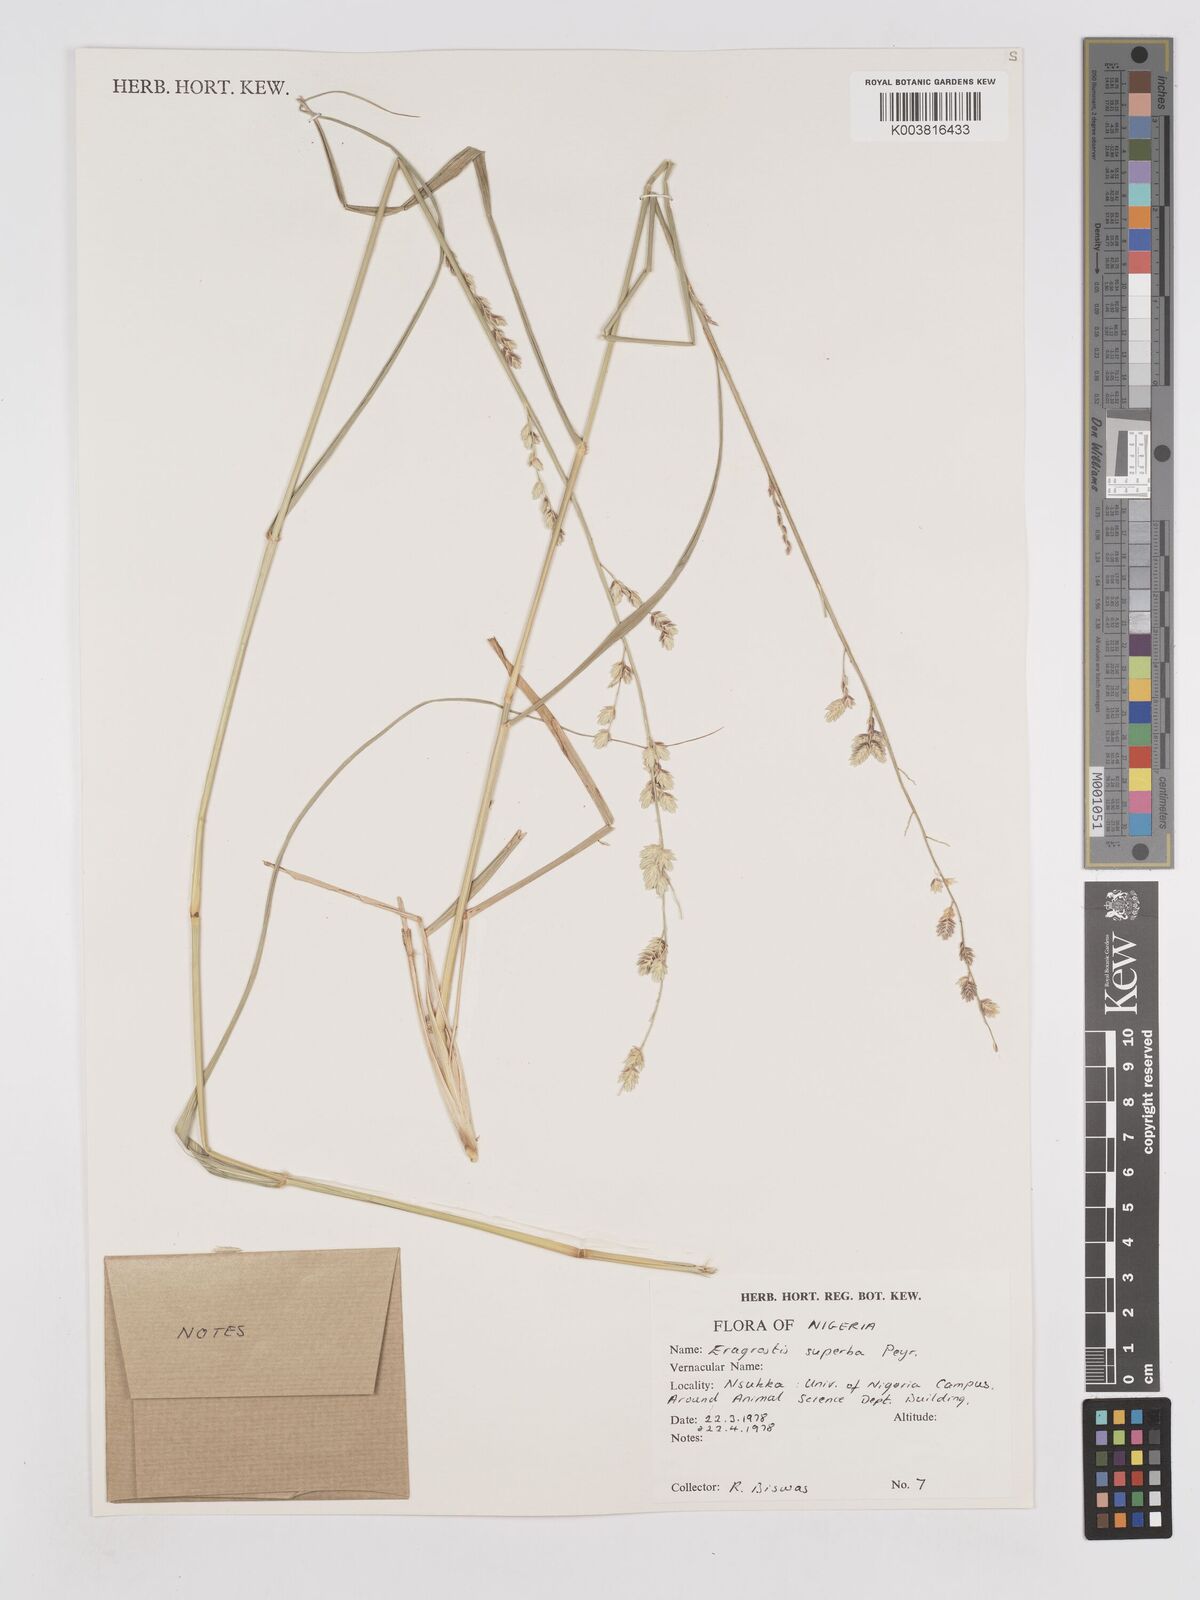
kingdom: Plantae
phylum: Tracheophyta
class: Liliopsida
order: Poales
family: Poaceae
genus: Eragrostis
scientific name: Eragrostis superba
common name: Wilman lovegrass
